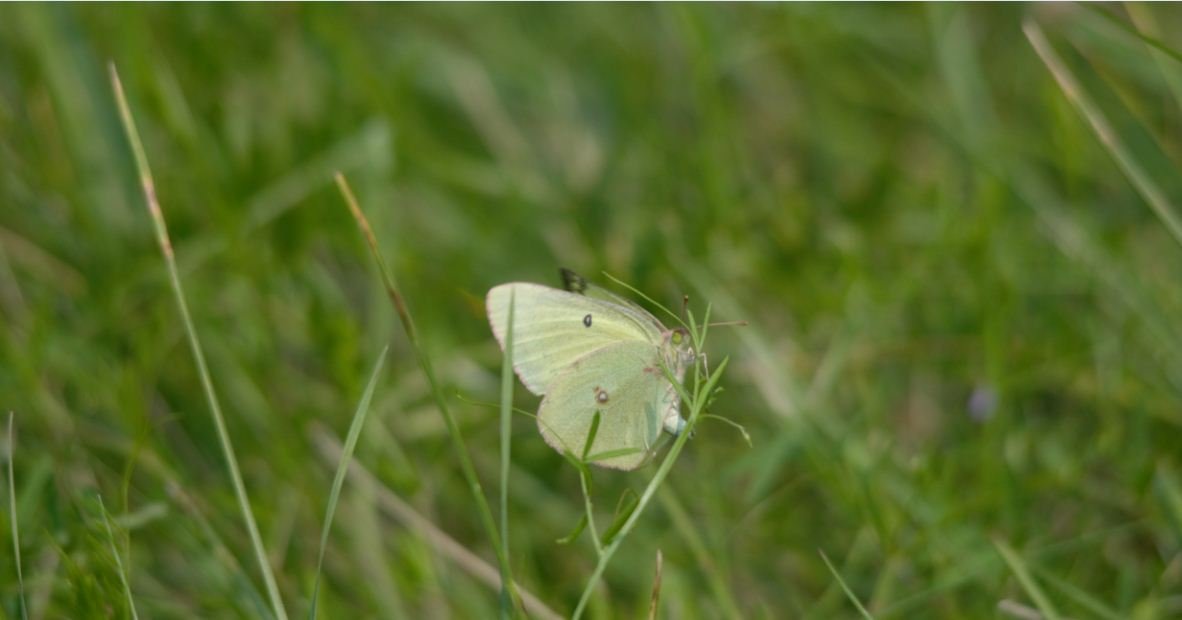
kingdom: Animalia
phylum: Arthropoda
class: Insecta
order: Lepidoptera
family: Pieridae
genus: Colias
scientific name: Colias philodice
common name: Clouded Sulphur
